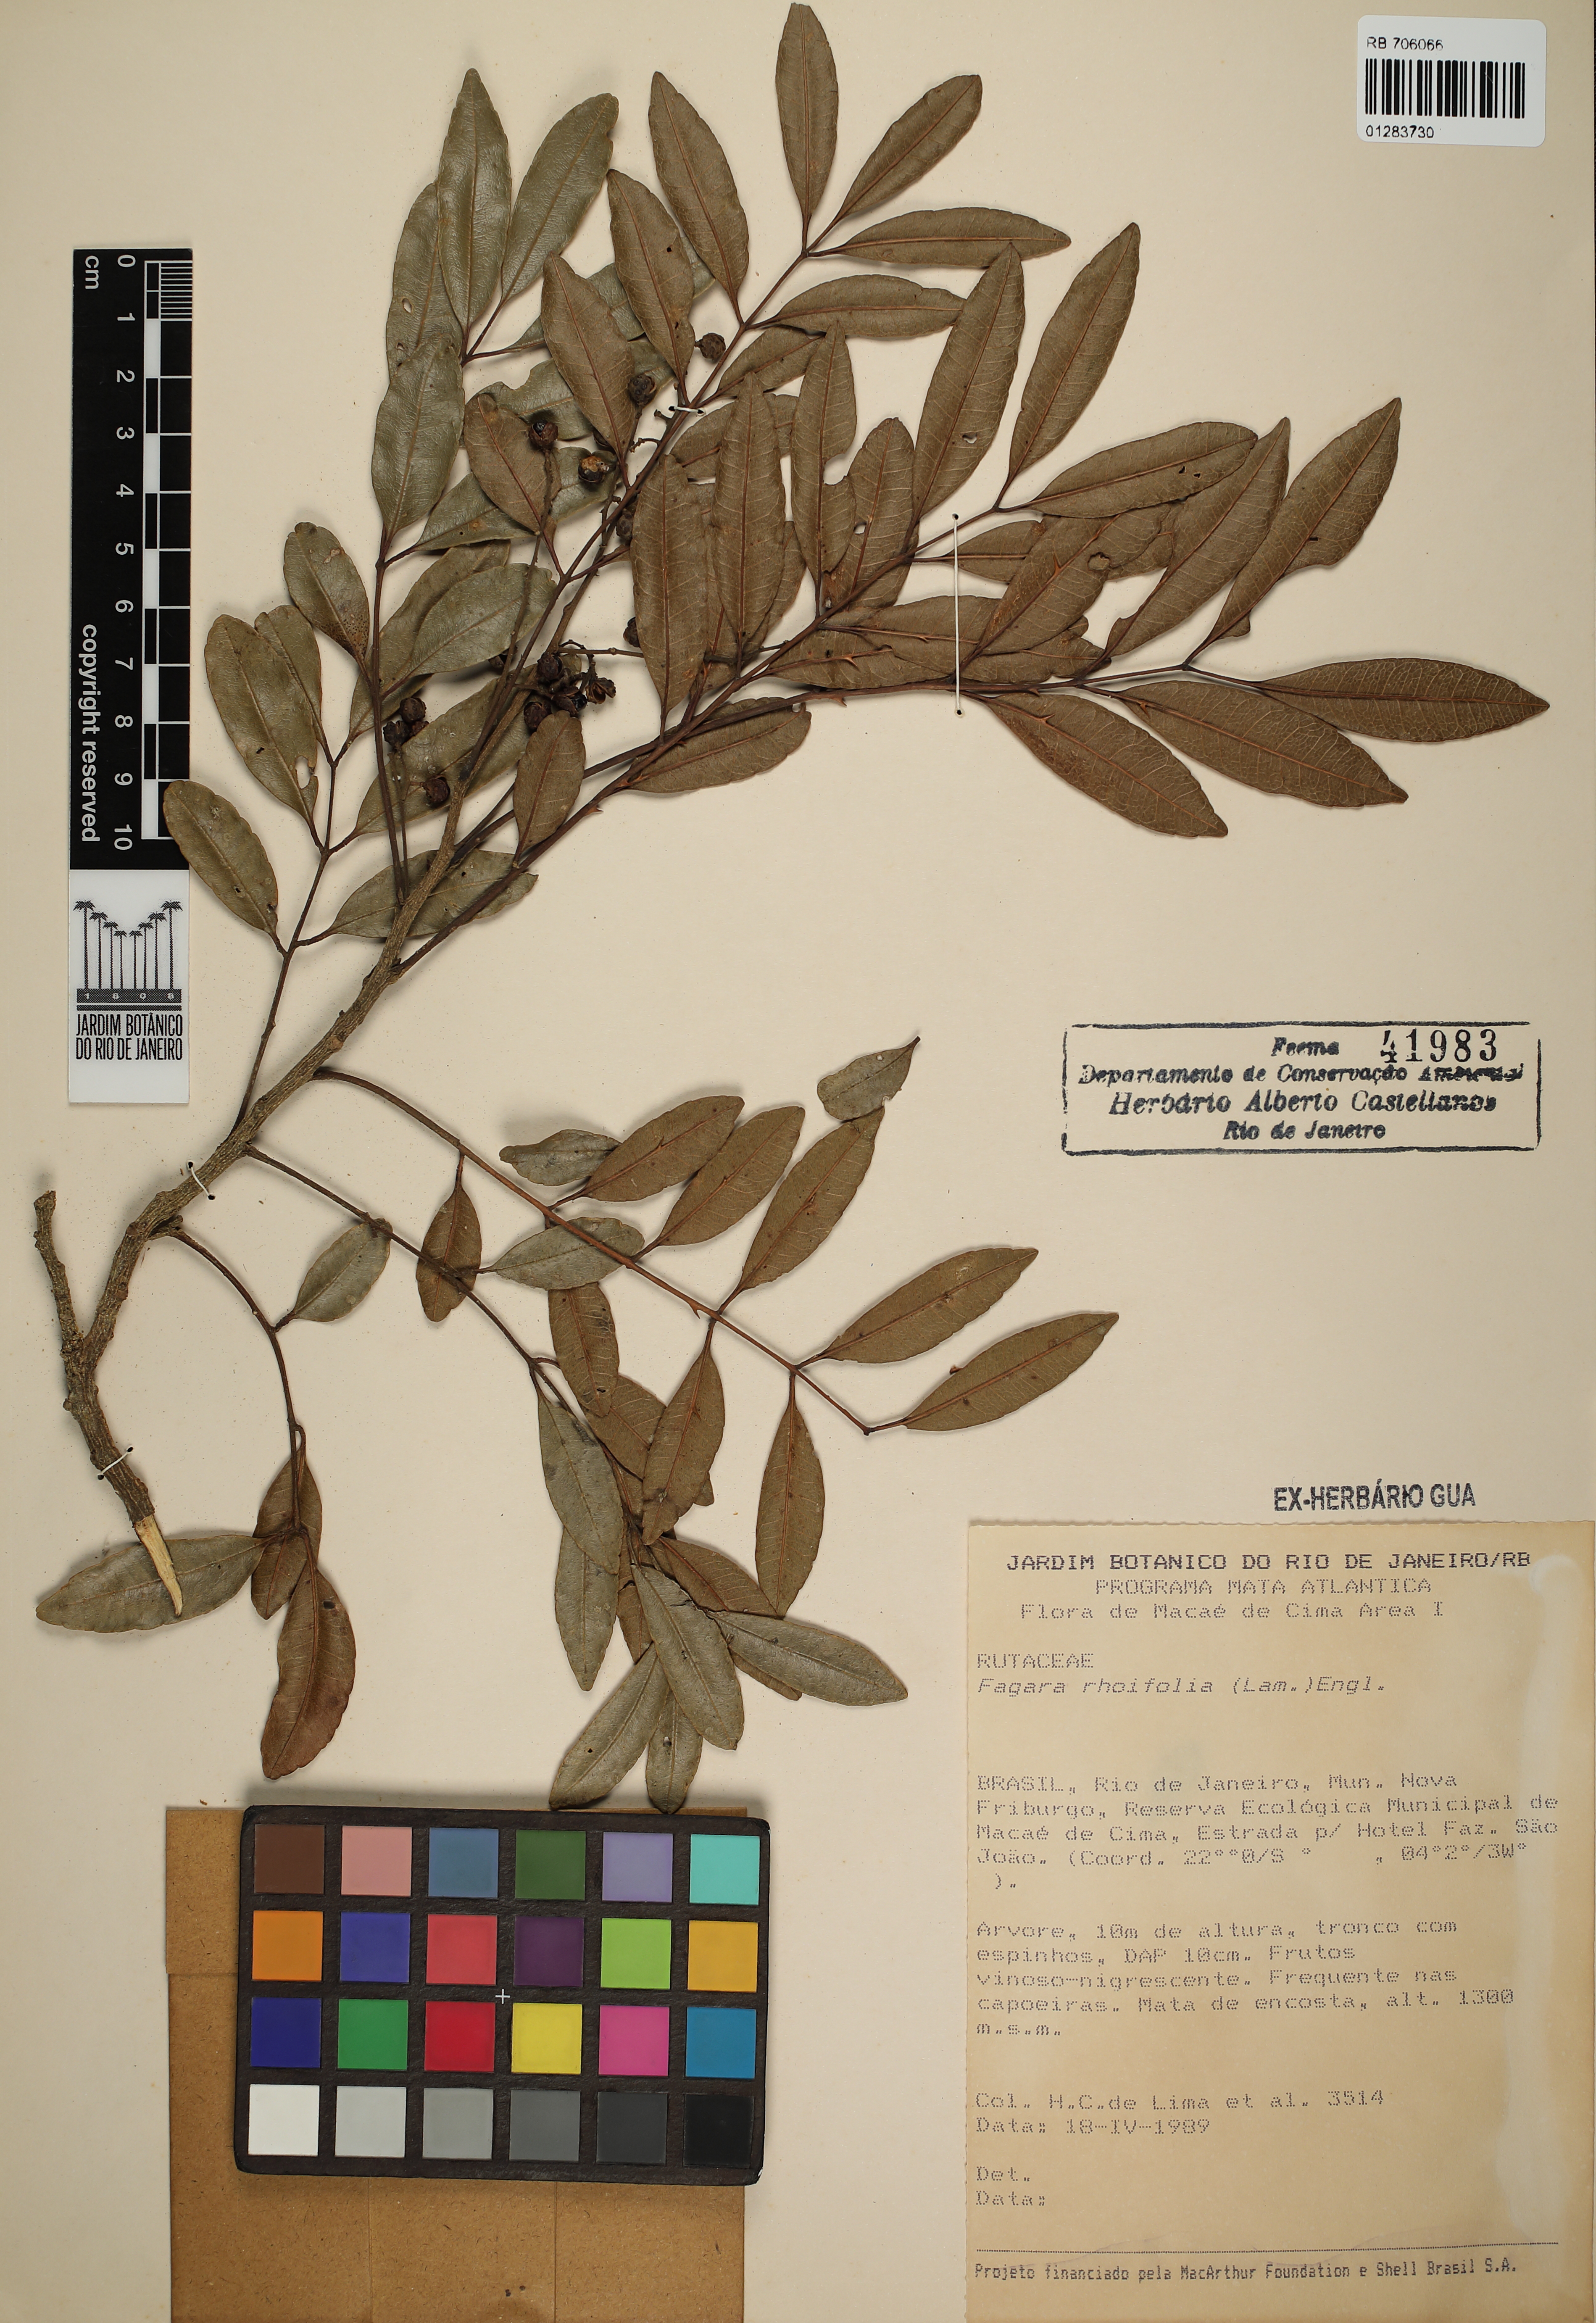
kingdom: Plantae
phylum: Tracheophyta
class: Magnoliopsida
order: Sapindales
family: Rutaceae
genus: Zanthoxylum
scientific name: Zanthoxylum rhoifolium
